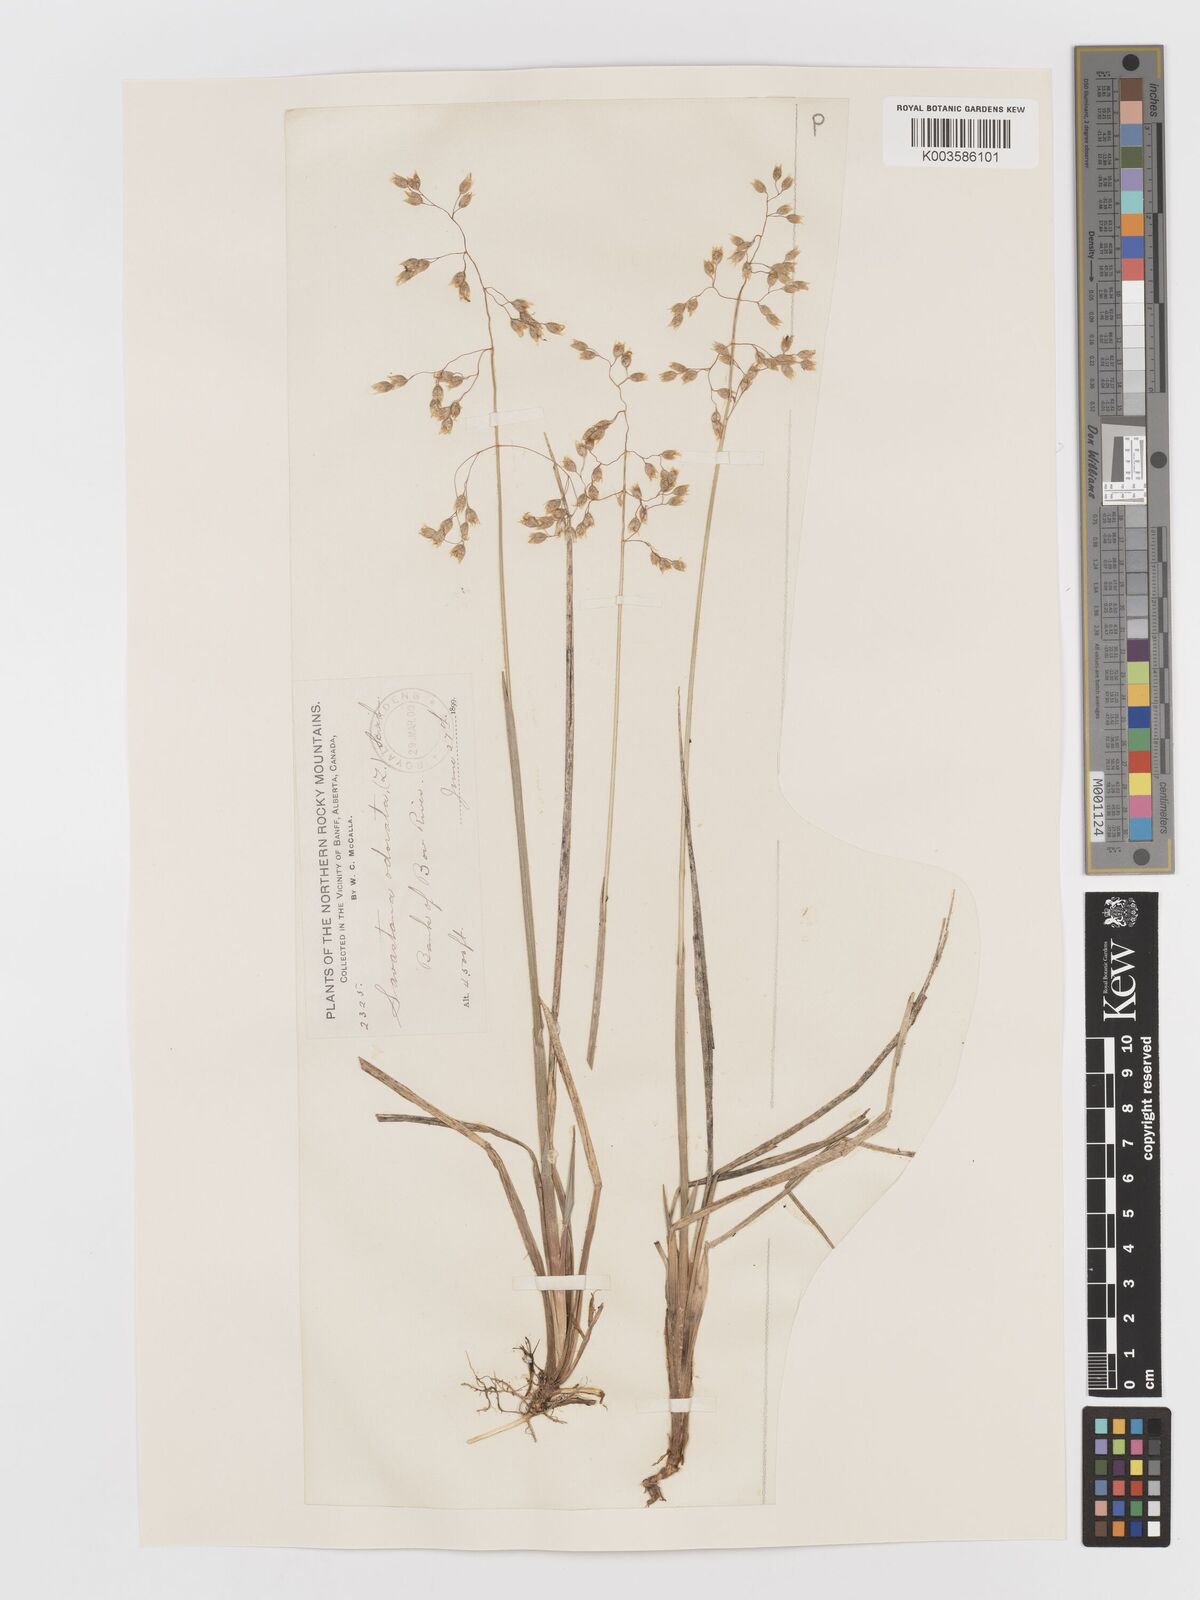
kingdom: Plantae
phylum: Tracheophyta
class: Liliopsida
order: Poales
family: Poaceae
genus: Anthoxanthum
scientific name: Anthoxanthum nitens
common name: Holy grass
